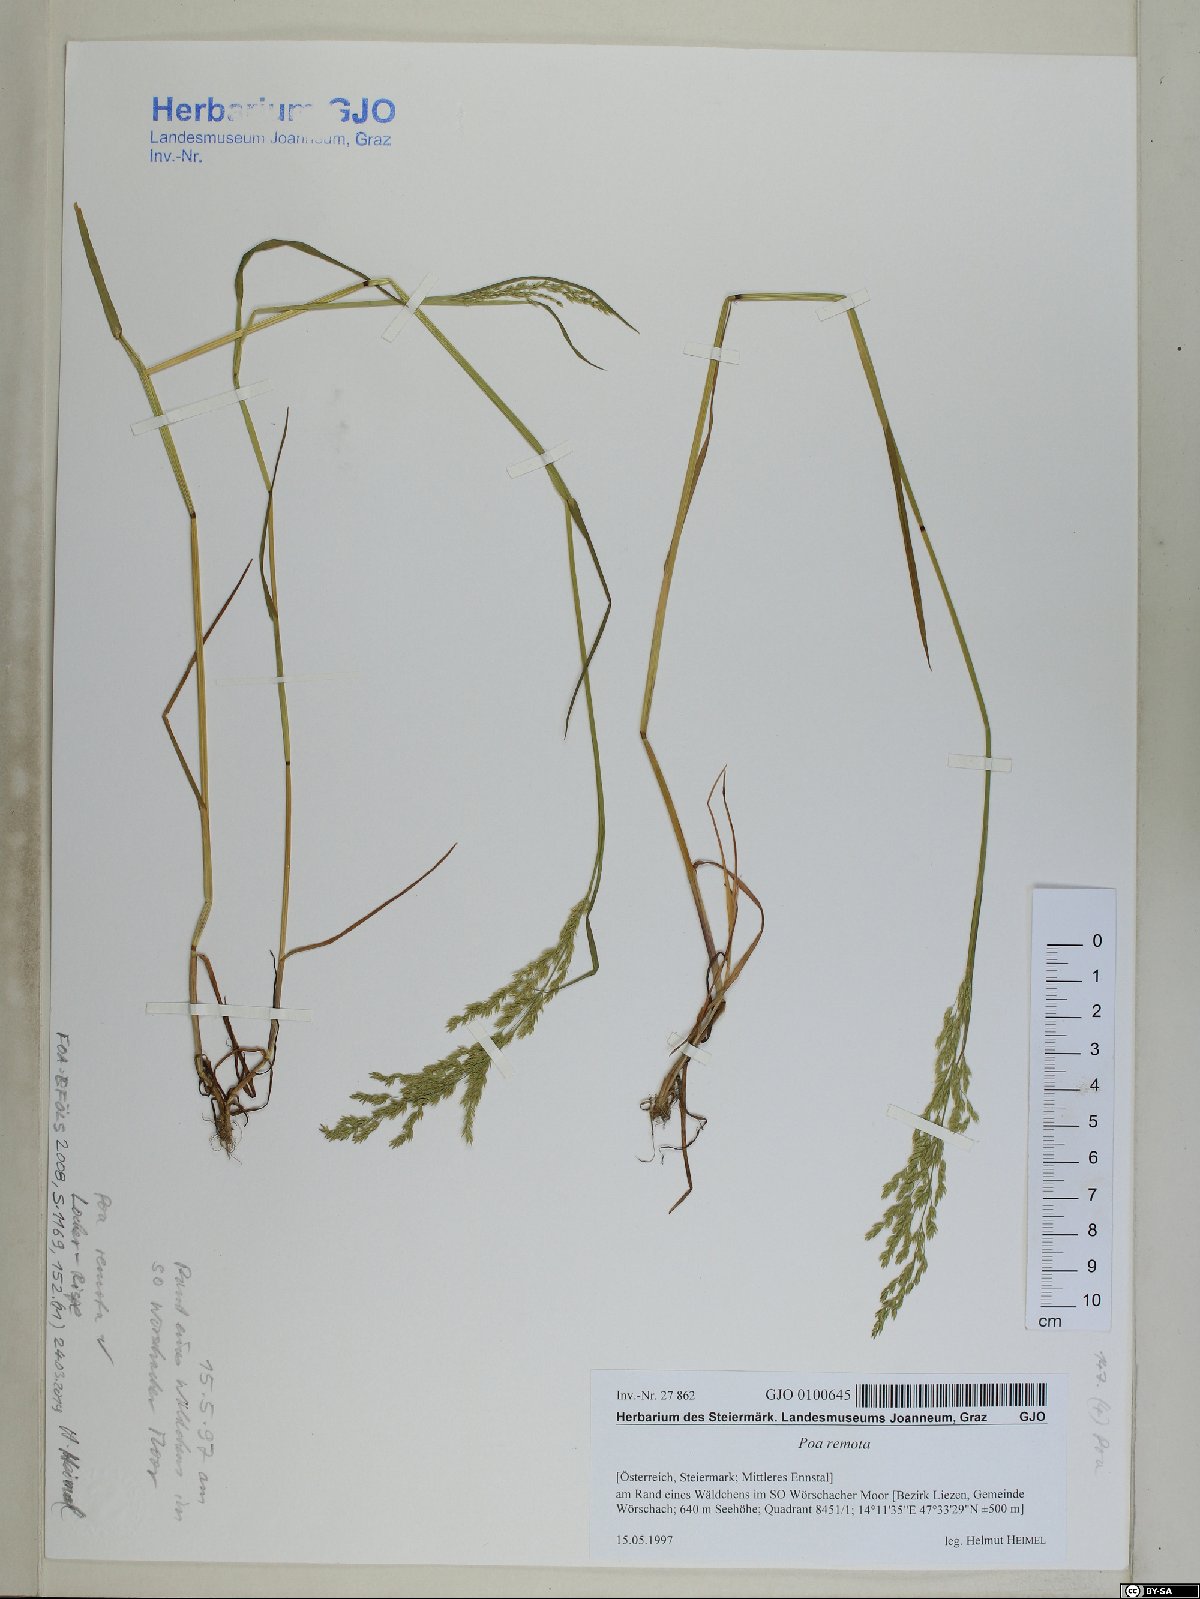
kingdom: Plantae
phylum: Tracheophyta
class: Liliopsida
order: Poales
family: Poaceae
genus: Poa
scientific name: Poa remota
